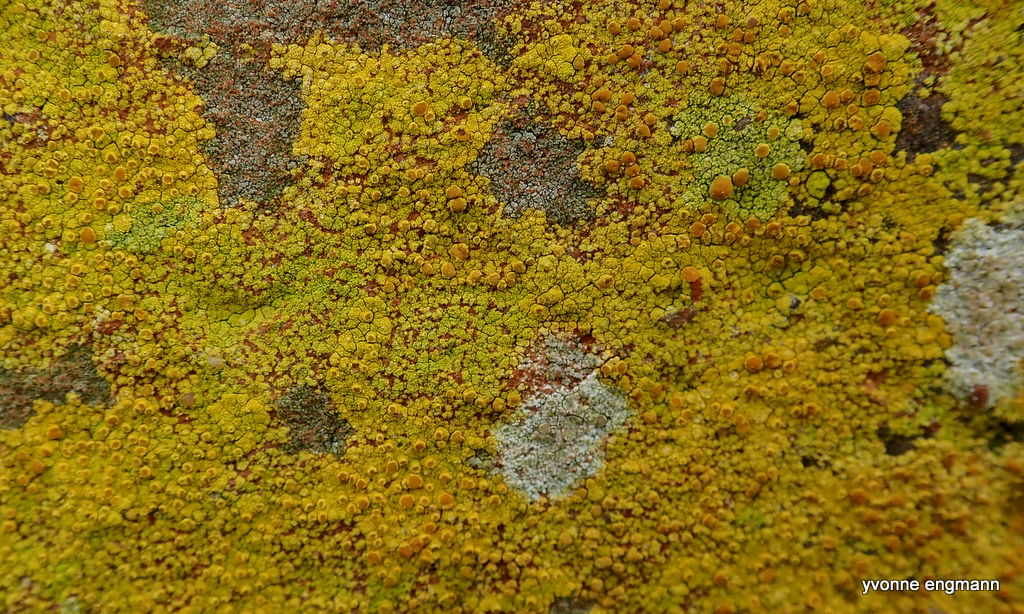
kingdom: Fungi
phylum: Ascomycota
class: Lecanoromycetes
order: Teloschistales
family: Teloschistaceae
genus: Flavoplaca
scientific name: Flavoplaca
